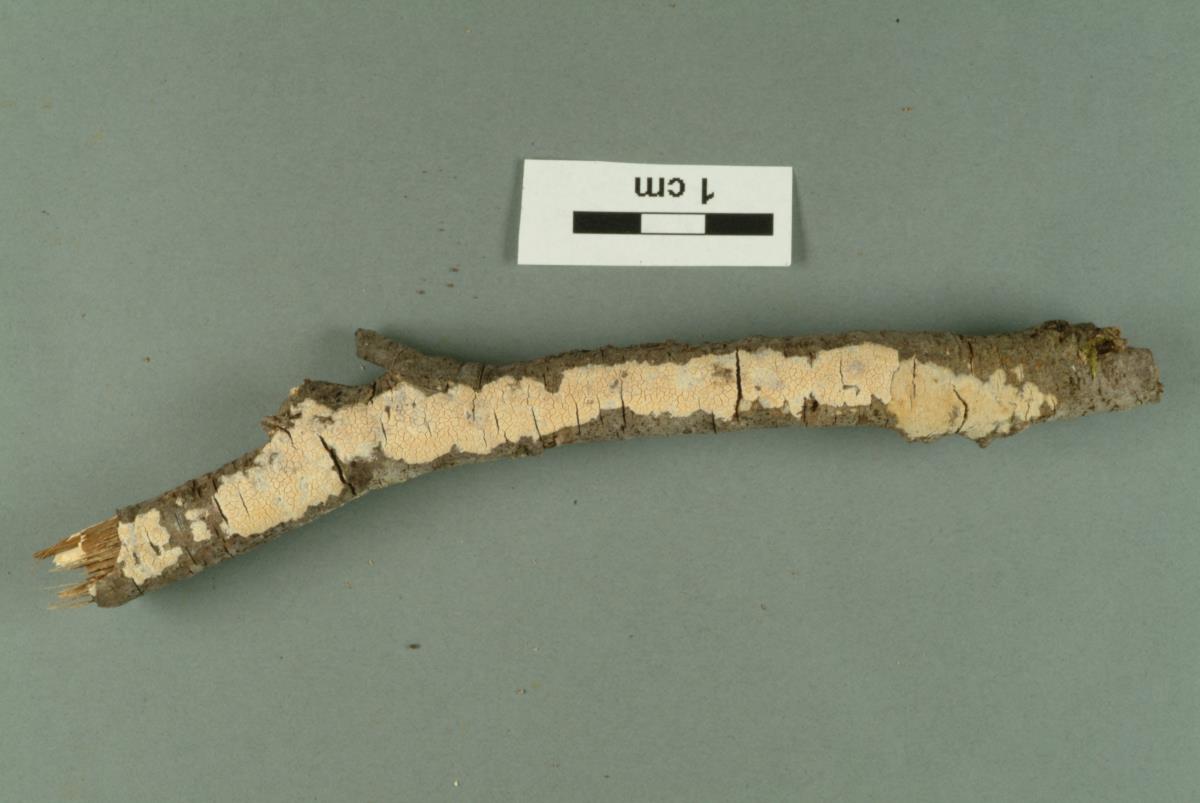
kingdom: Fungi
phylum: Basidiomycota
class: Agaricomycetes
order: Russulales
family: Stereaceae
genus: Aleurodiscus
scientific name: Aleurodiscus coralloides
